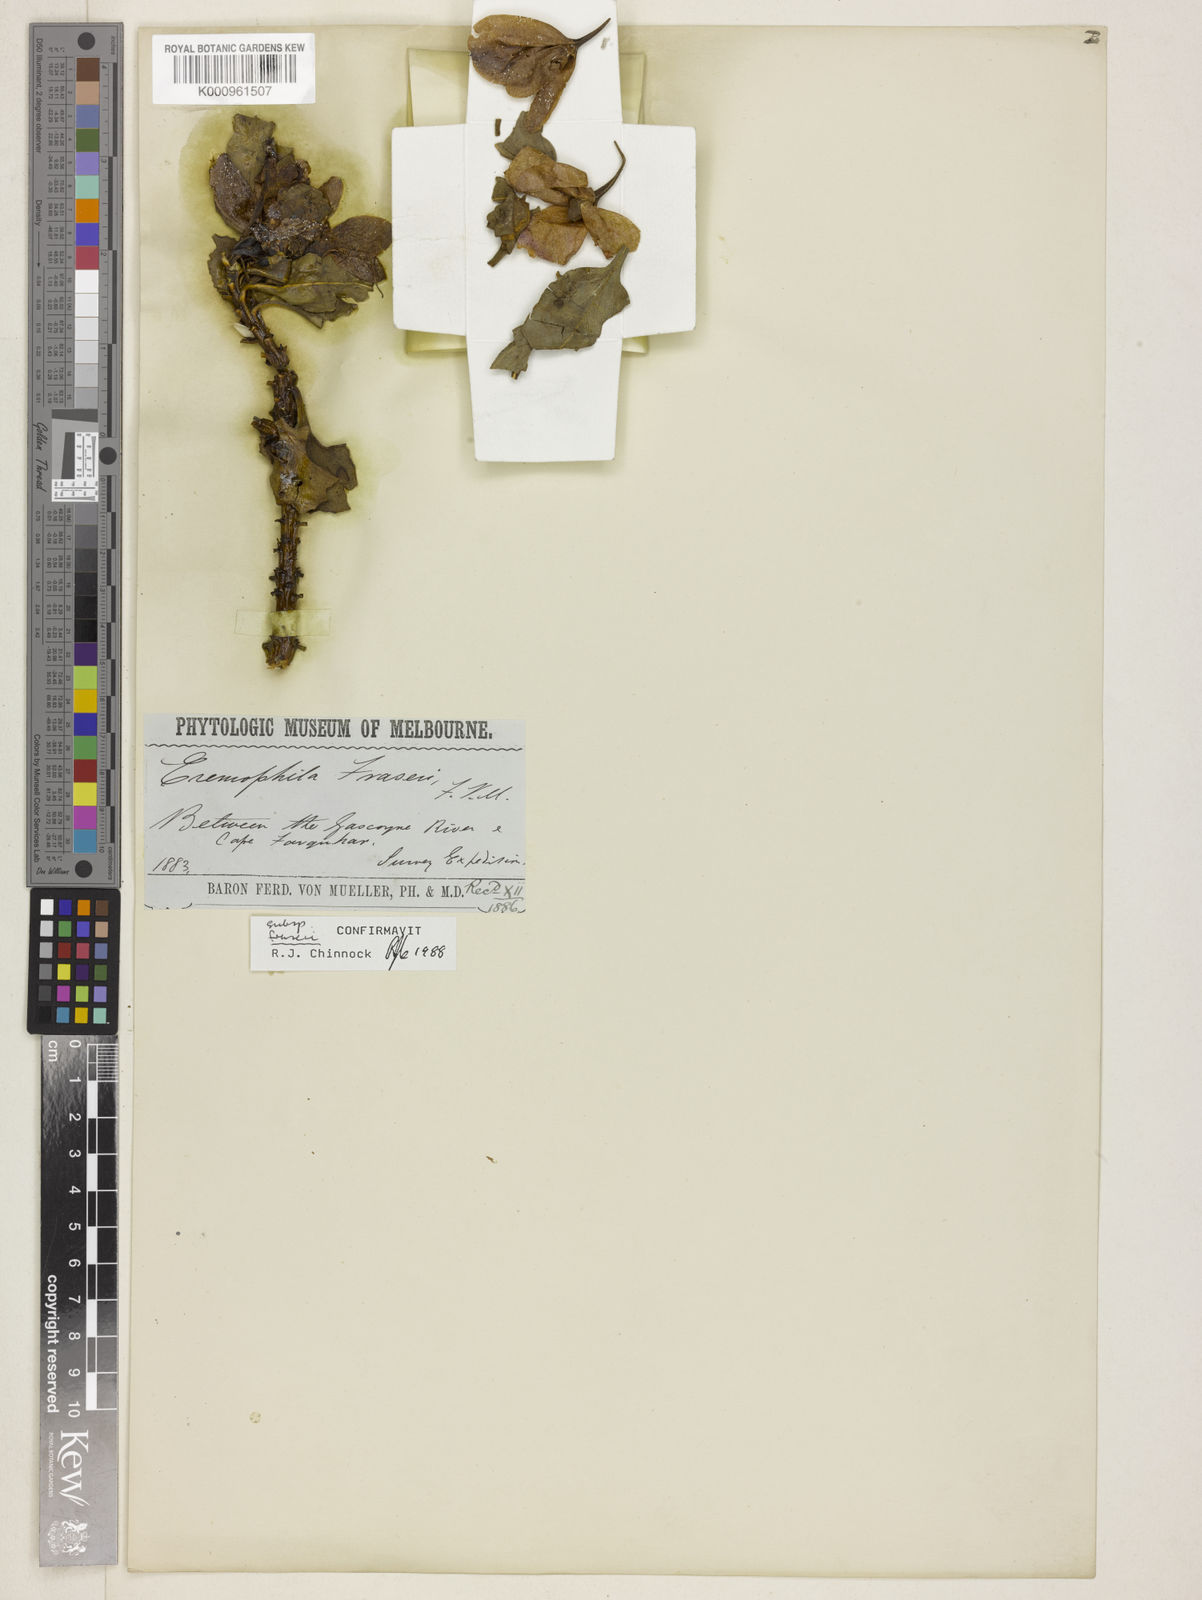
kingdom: Plantae
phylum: Tracheophyta
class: Magnoliopsida
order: Lamiales
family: Scrophulariaceae
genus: Eremophila
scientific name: Eremophila fraseri
